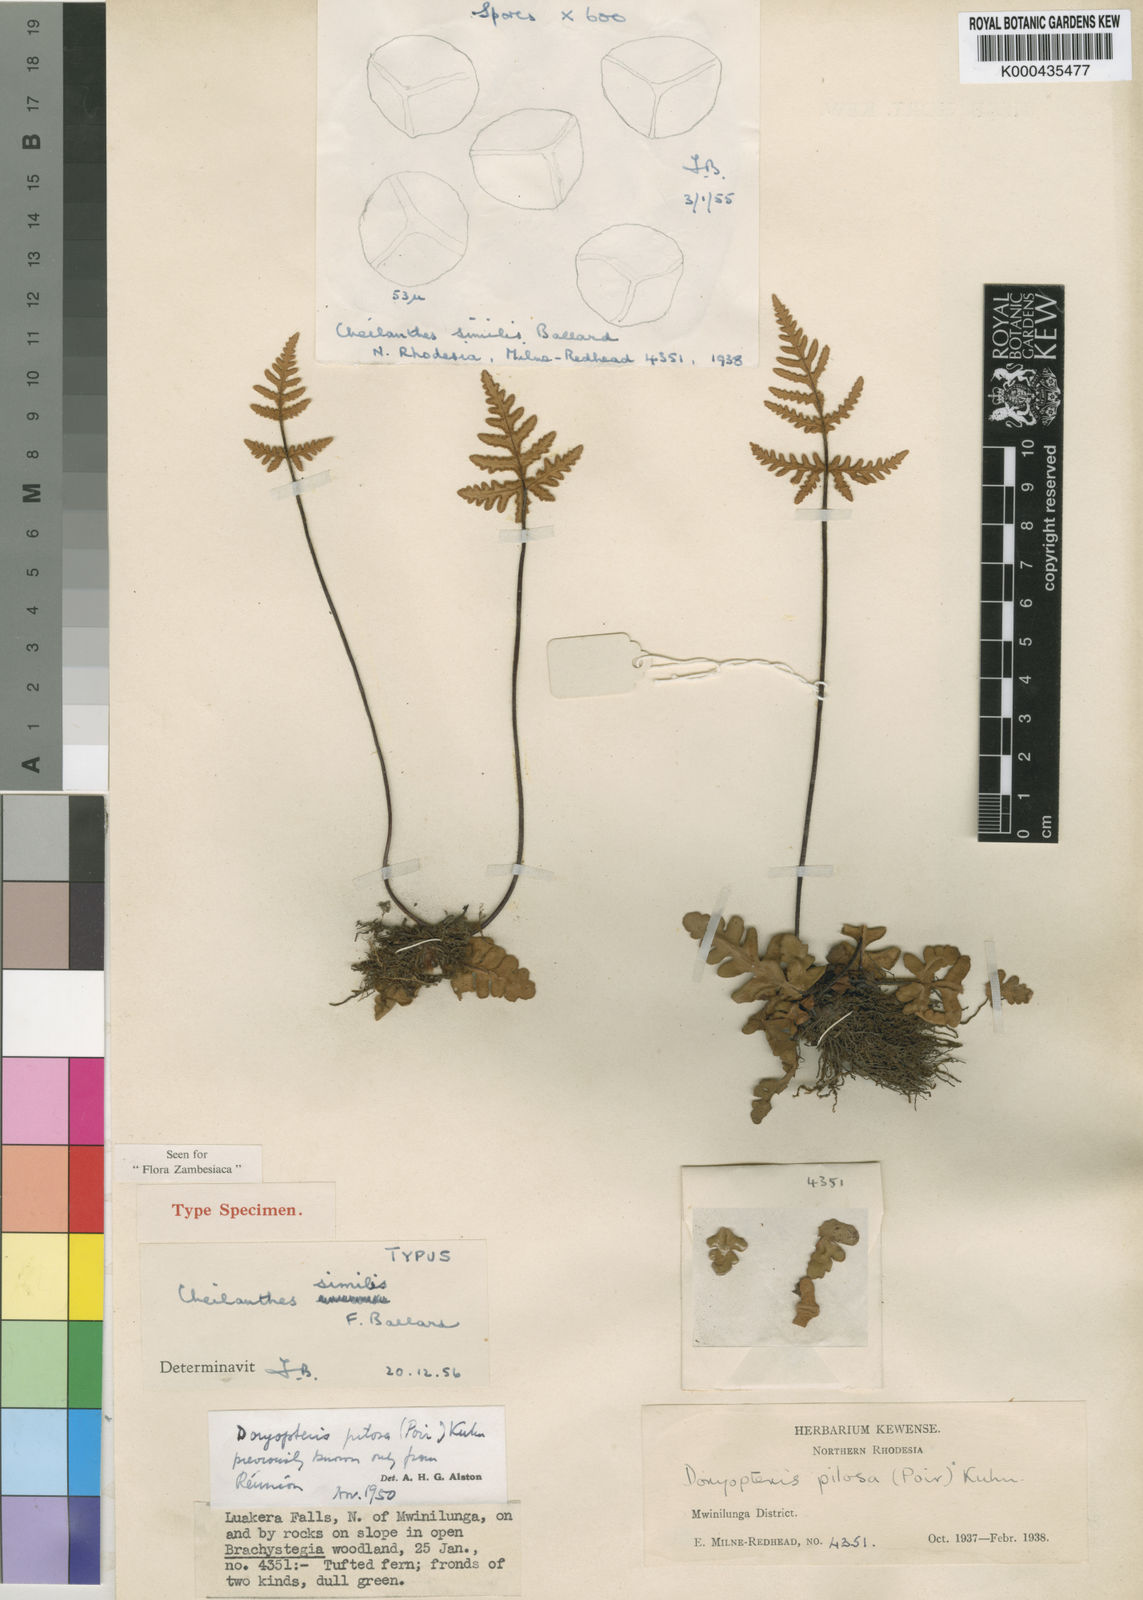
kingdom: Plantae
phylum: Tracheophyta
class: Polypodiopsida
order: Polypodiales
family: Pteridaceae
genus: Cheilanthes
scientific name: Cheilanthes similis
